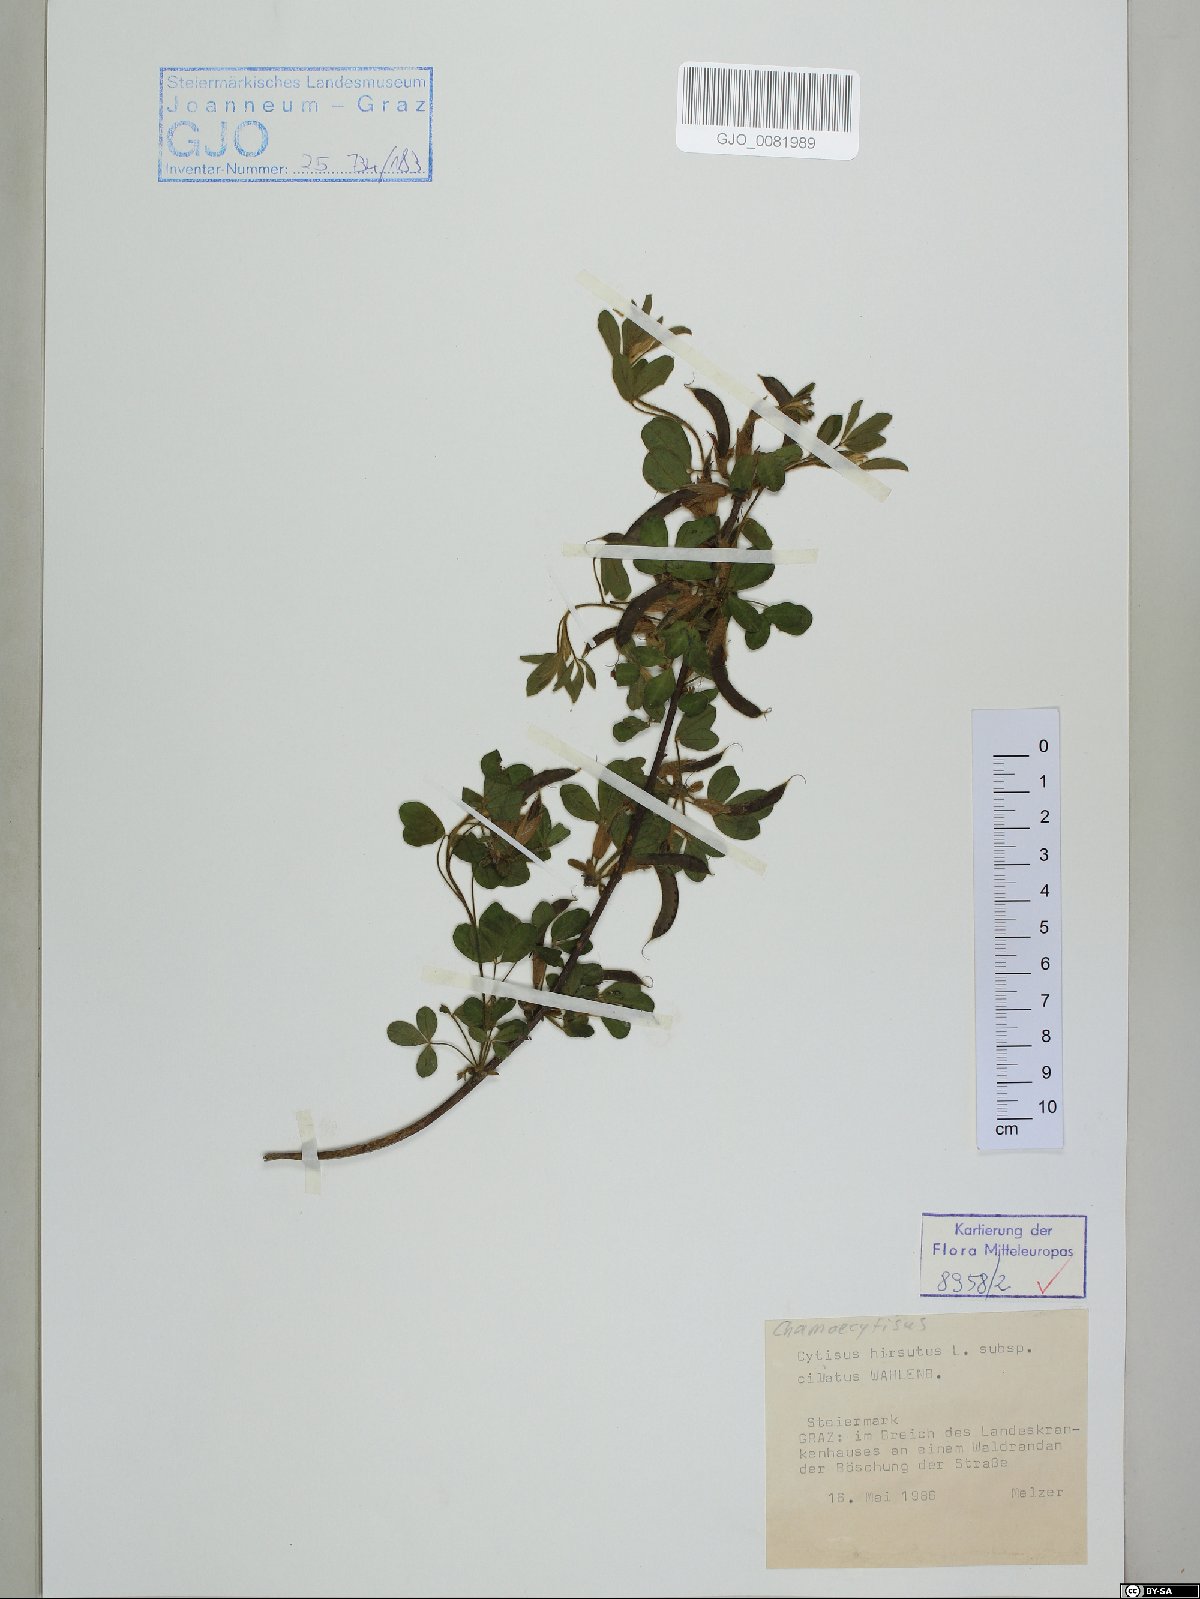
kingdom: Plantae
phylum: Tracheophyta
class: Magnoliopsida
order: Fabales
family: Fabaceae
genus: Chamaecytisus
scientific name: Chamaecytisus hirsutus
